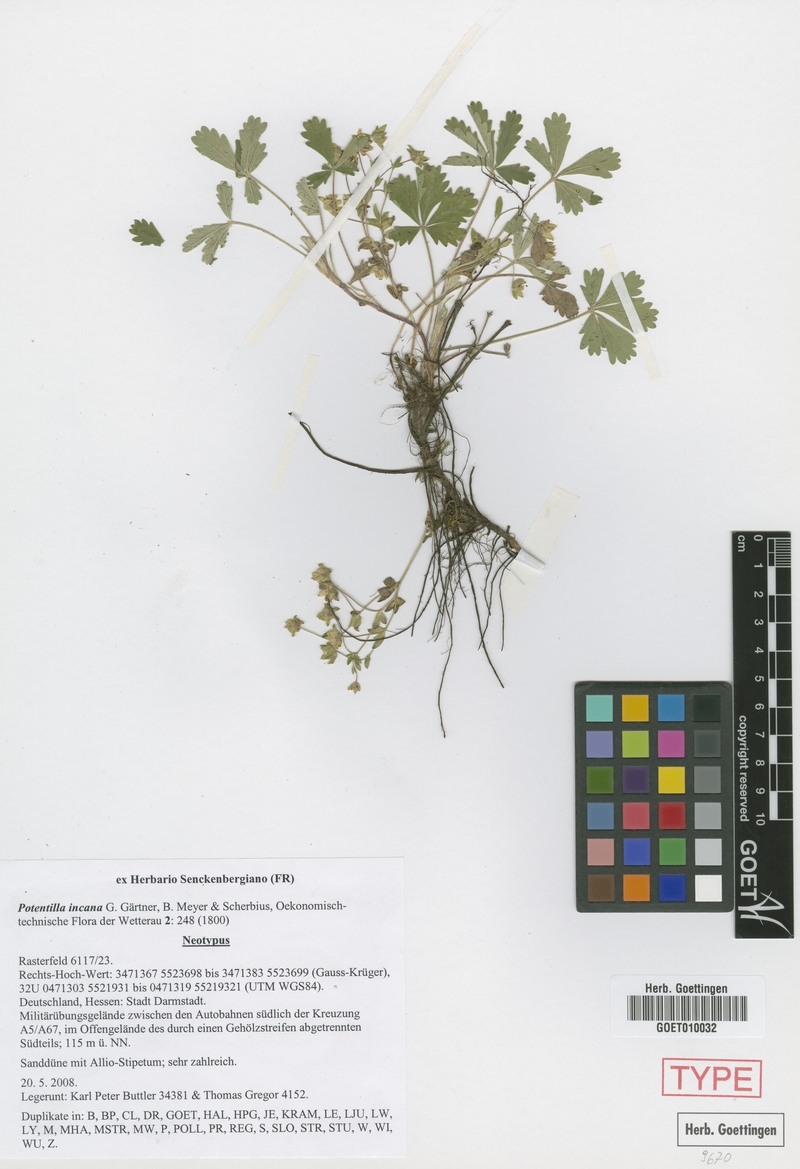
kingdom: Plantae
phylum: Tracheophyta
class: Magnoliopsida
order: Rosales
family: Rosaceae
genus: Potentilla
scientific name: Potentilla cinerea
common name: Ashy cinquefoil
